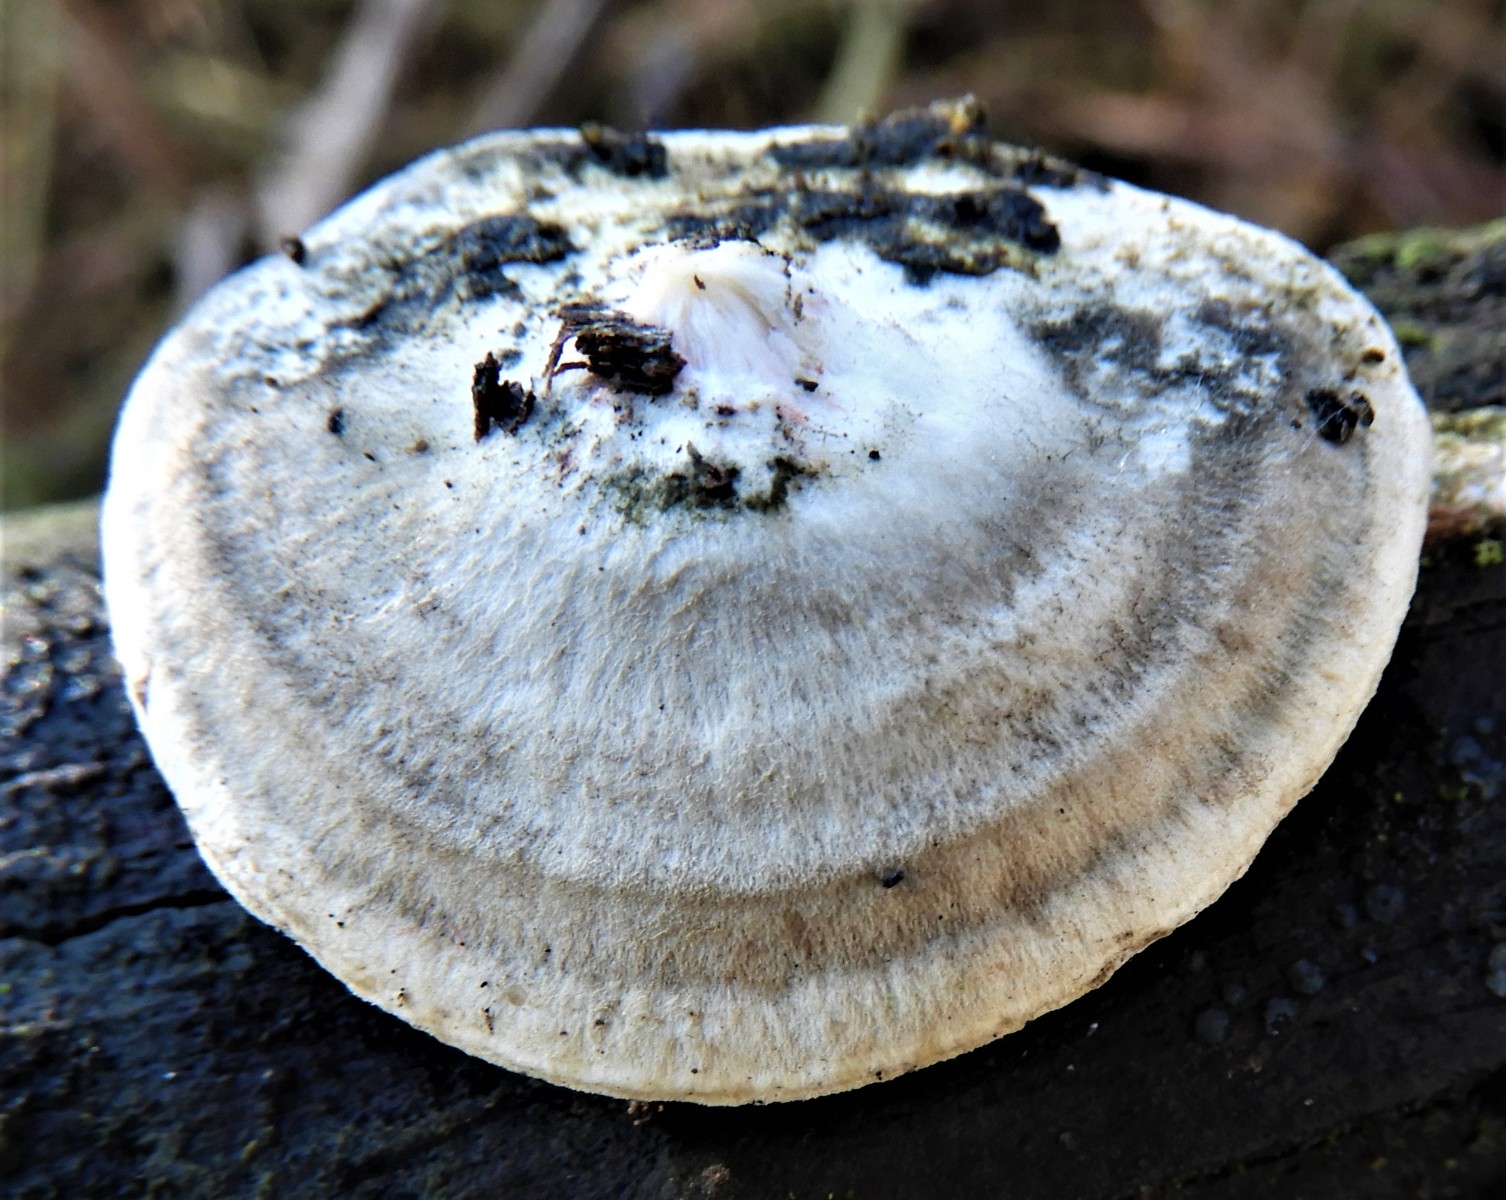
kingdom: Fungi
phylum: Basidiomycota
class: Agaricomycetes
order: Polyporales
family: Polyporaceae
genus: Cyanosporus
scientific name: Cyanosporus alni
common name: blegblå kødporesvamp
